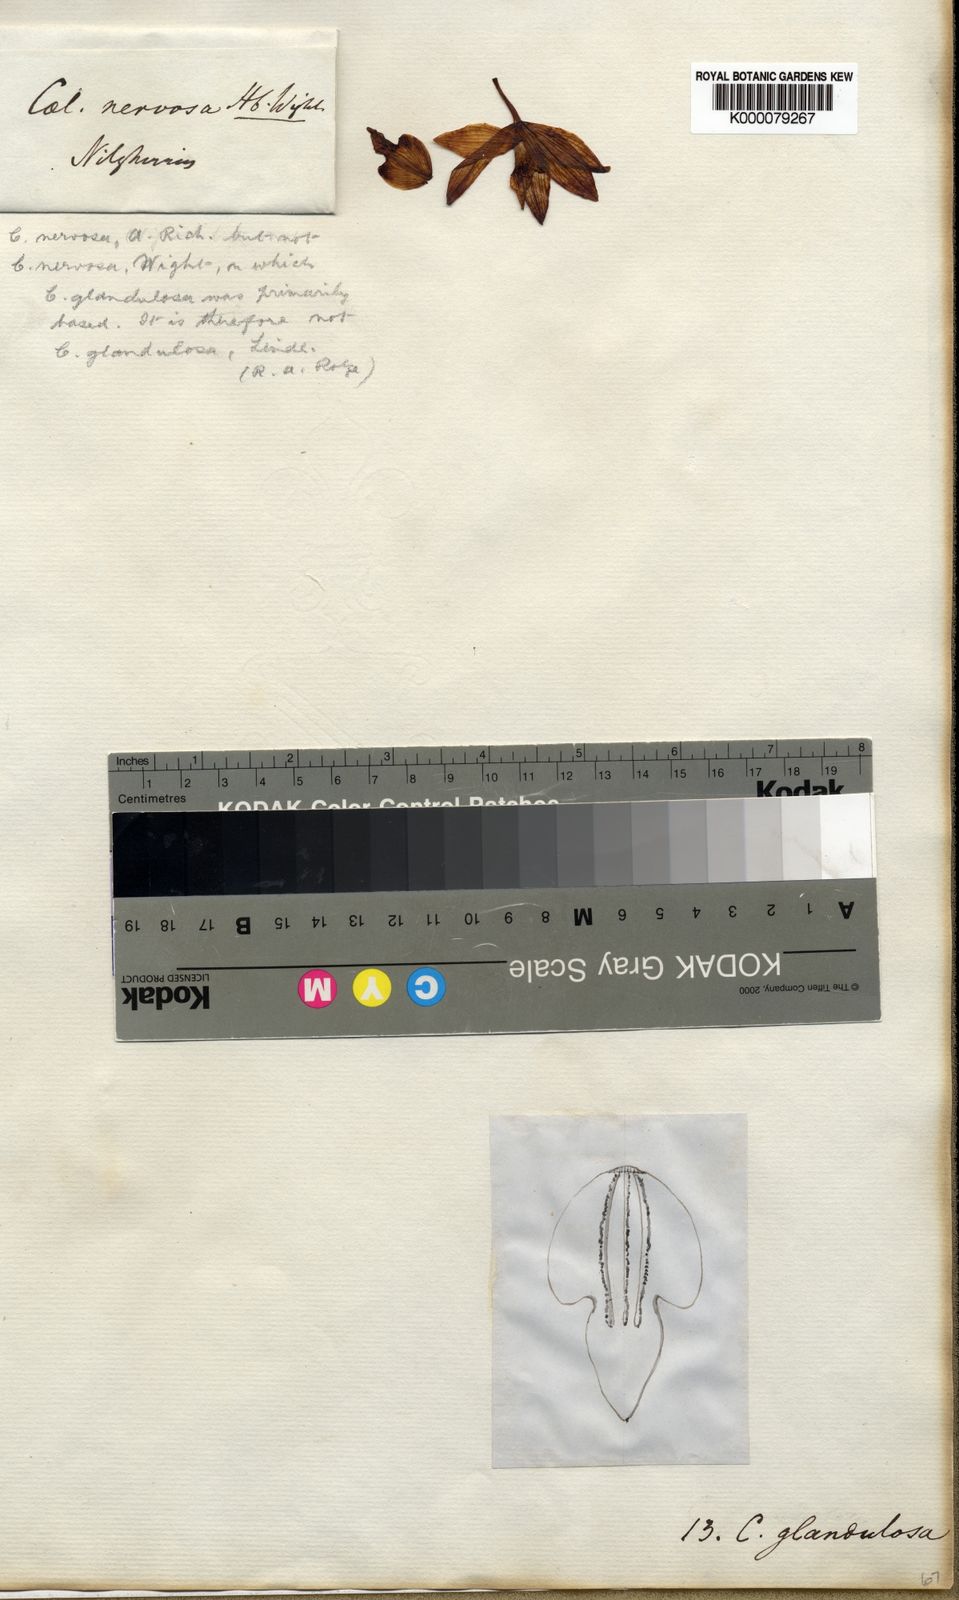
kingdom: Plantae
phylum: Tracheophyta
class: Liliopsida
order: Asparagales
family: Orchidaceae
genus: Coelogyne
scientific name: Coelogyne nervosa
